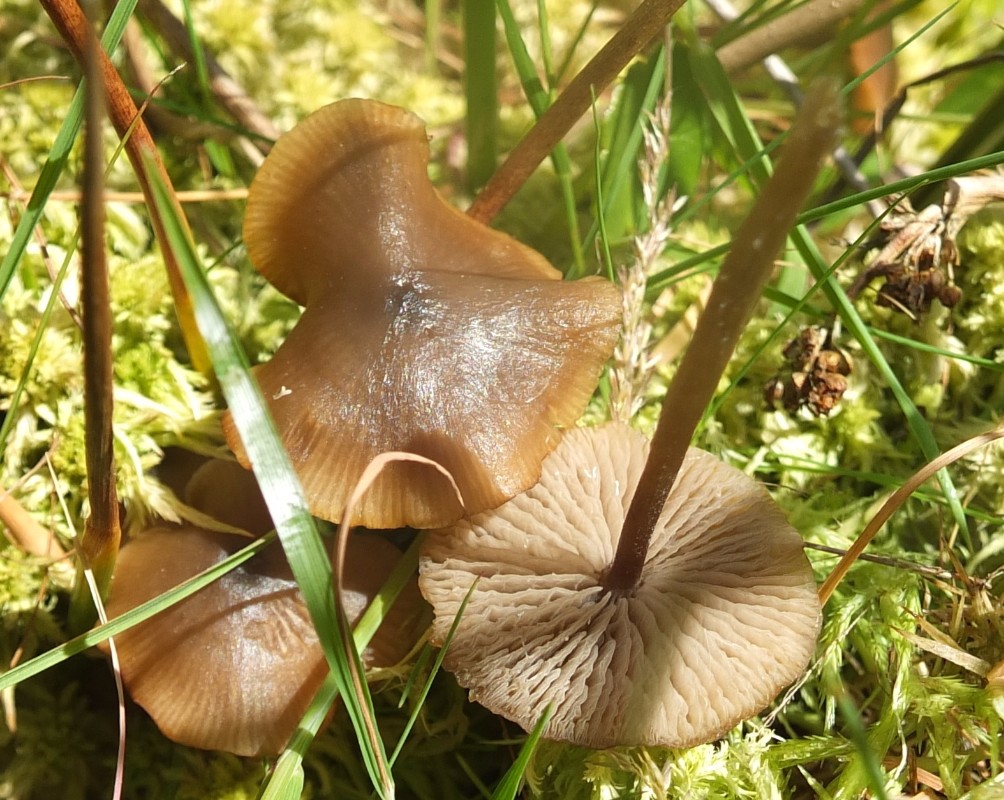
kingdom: Fungi
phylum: Basidiomycota
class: Agaricomycetes
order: Agaricales
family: Lyophyllaceae
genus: Sphagnurus
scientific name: Sphagnurus paluster
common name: tørvemos-gråblad
